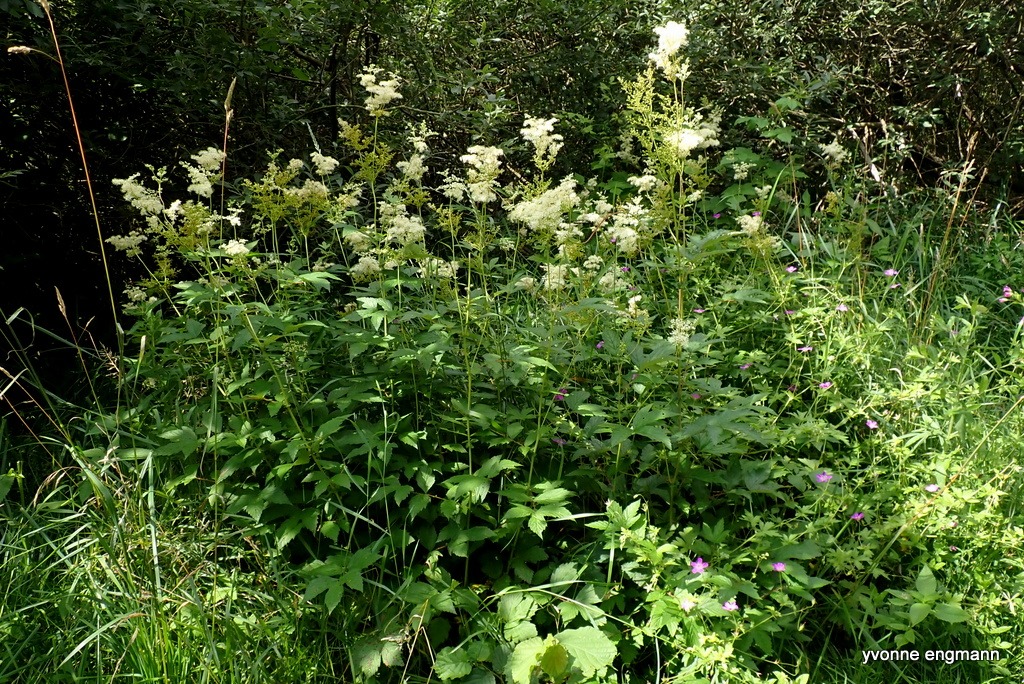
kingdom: Plantae
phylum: Tracheophyta
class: Magnoliopsida
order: Rosales
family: Rosaceae
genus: Filipendula
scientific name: Filipendula ulmaria
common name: Almindelig mjødurt
